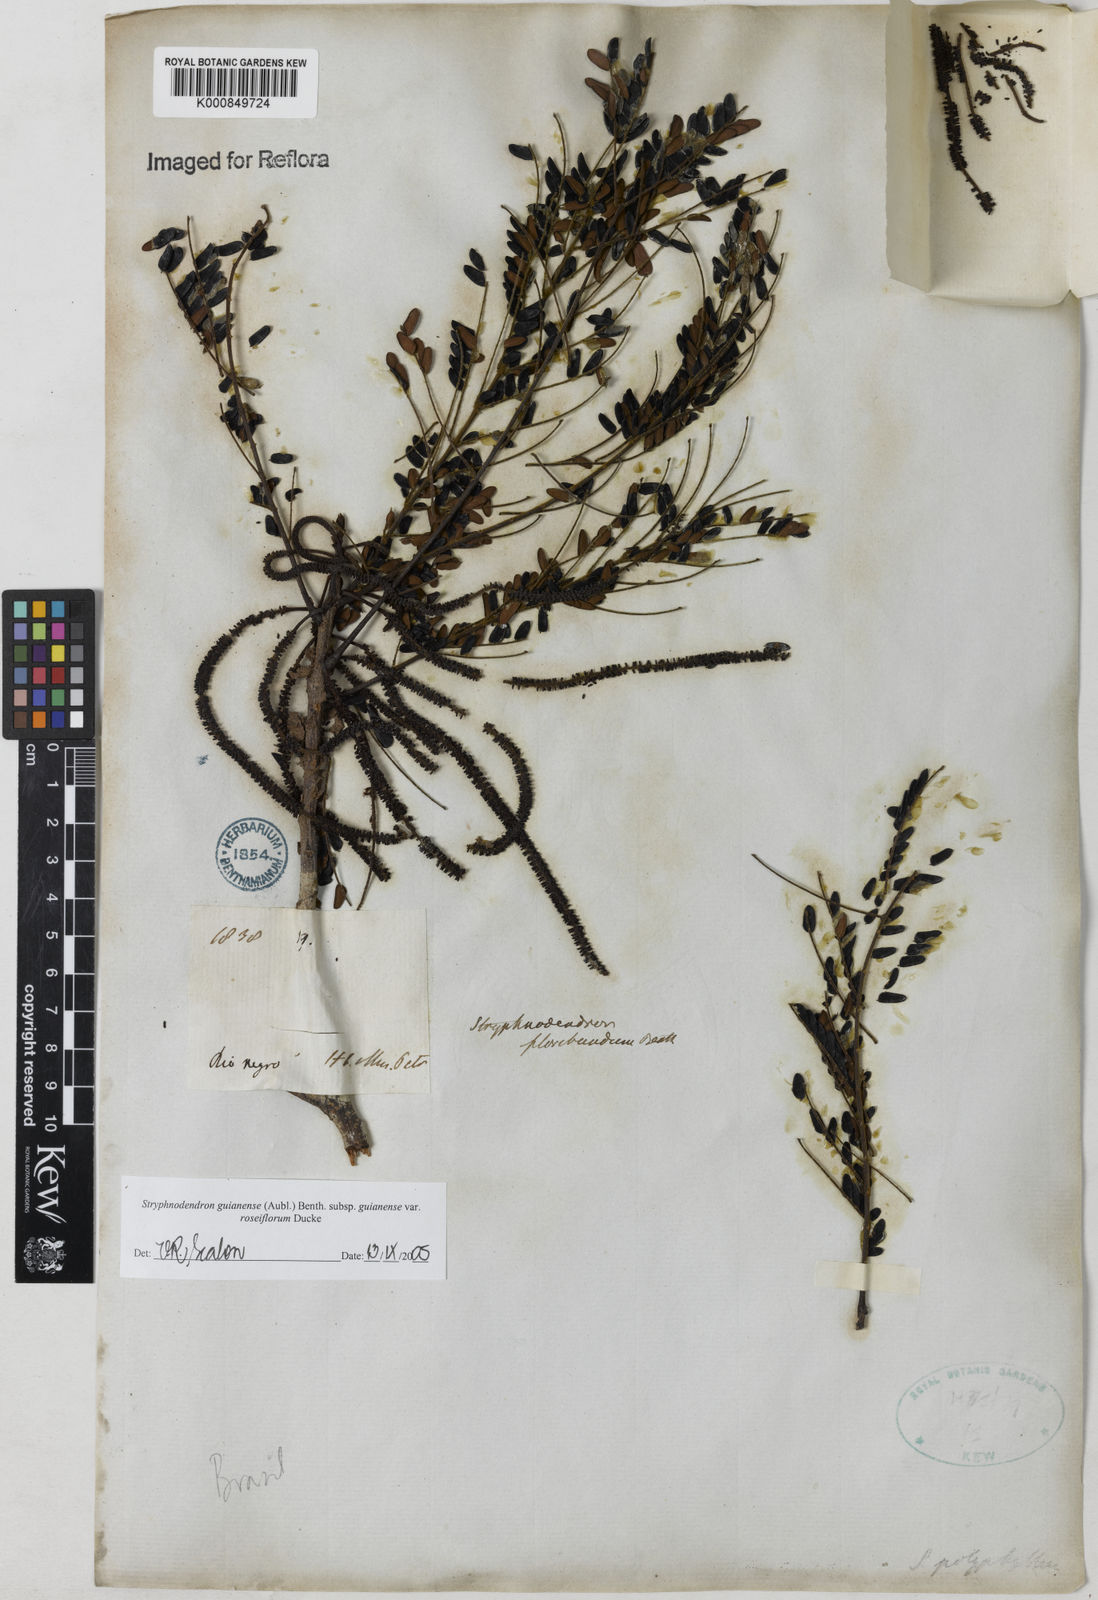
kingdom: Plantae
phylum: Tracheophyta
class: Magnoliopsida
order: Fabales
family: Fabaceae
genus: Stryphnodendron
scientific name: Stryphnodendron guianense
